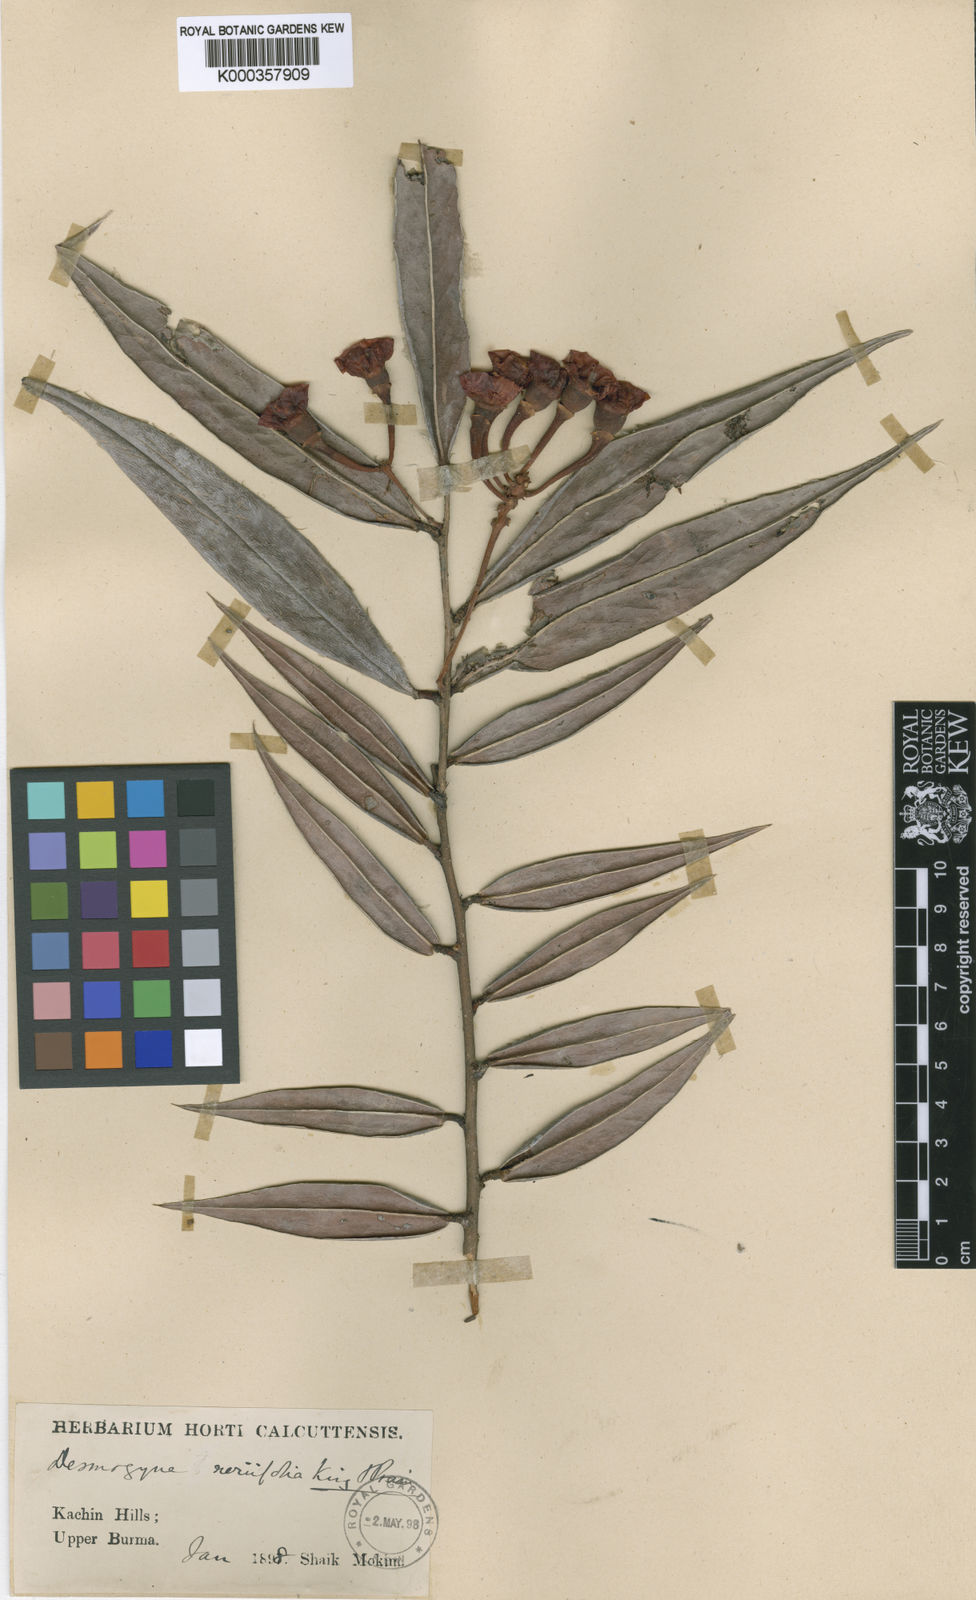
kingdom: Plantae
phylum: Tracheophyta
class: Magnoliopsida
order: Ericales
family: Ericaceae
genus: Agapetes
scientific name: Agapetes neriifolia
